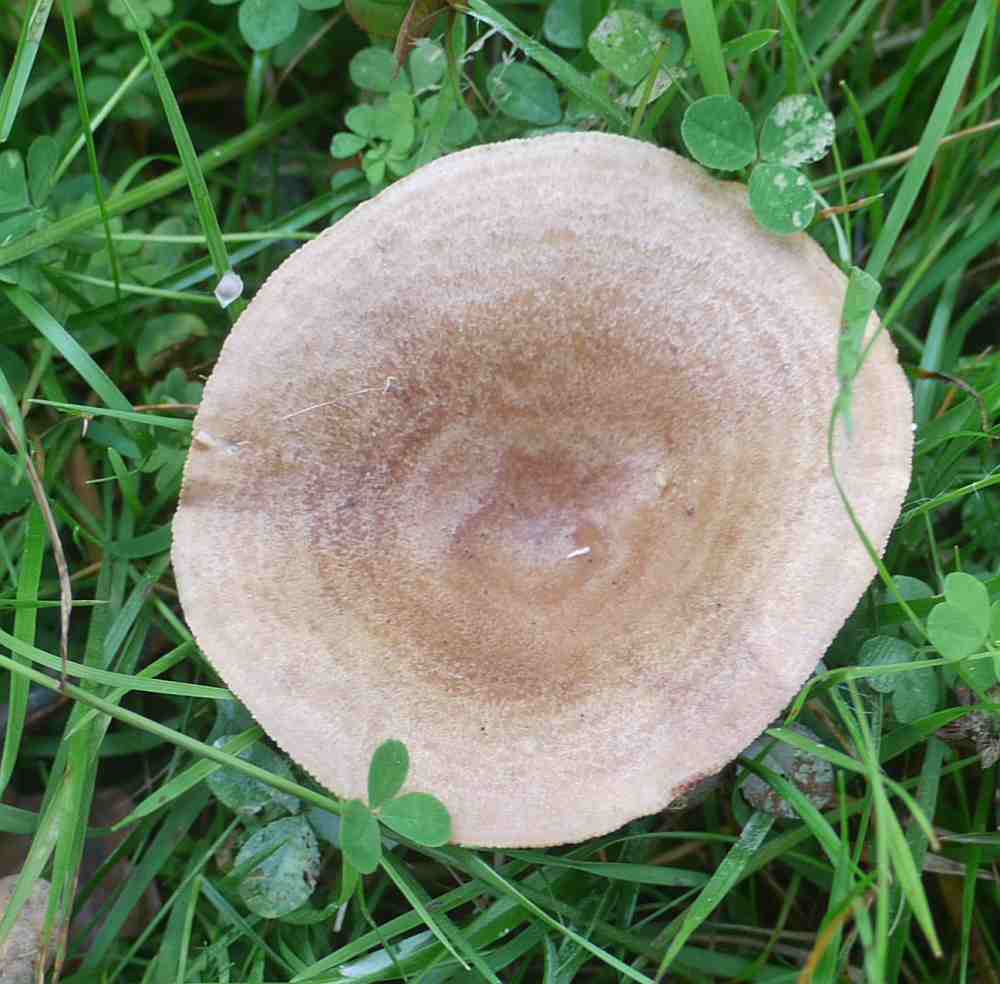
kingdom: Fungi
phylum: Basidiomycota
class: Agaricomycetes
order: Russulales
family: Russulaceae
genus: Lactarius
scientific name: Lactarius quietus
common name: ege-mælkehat
